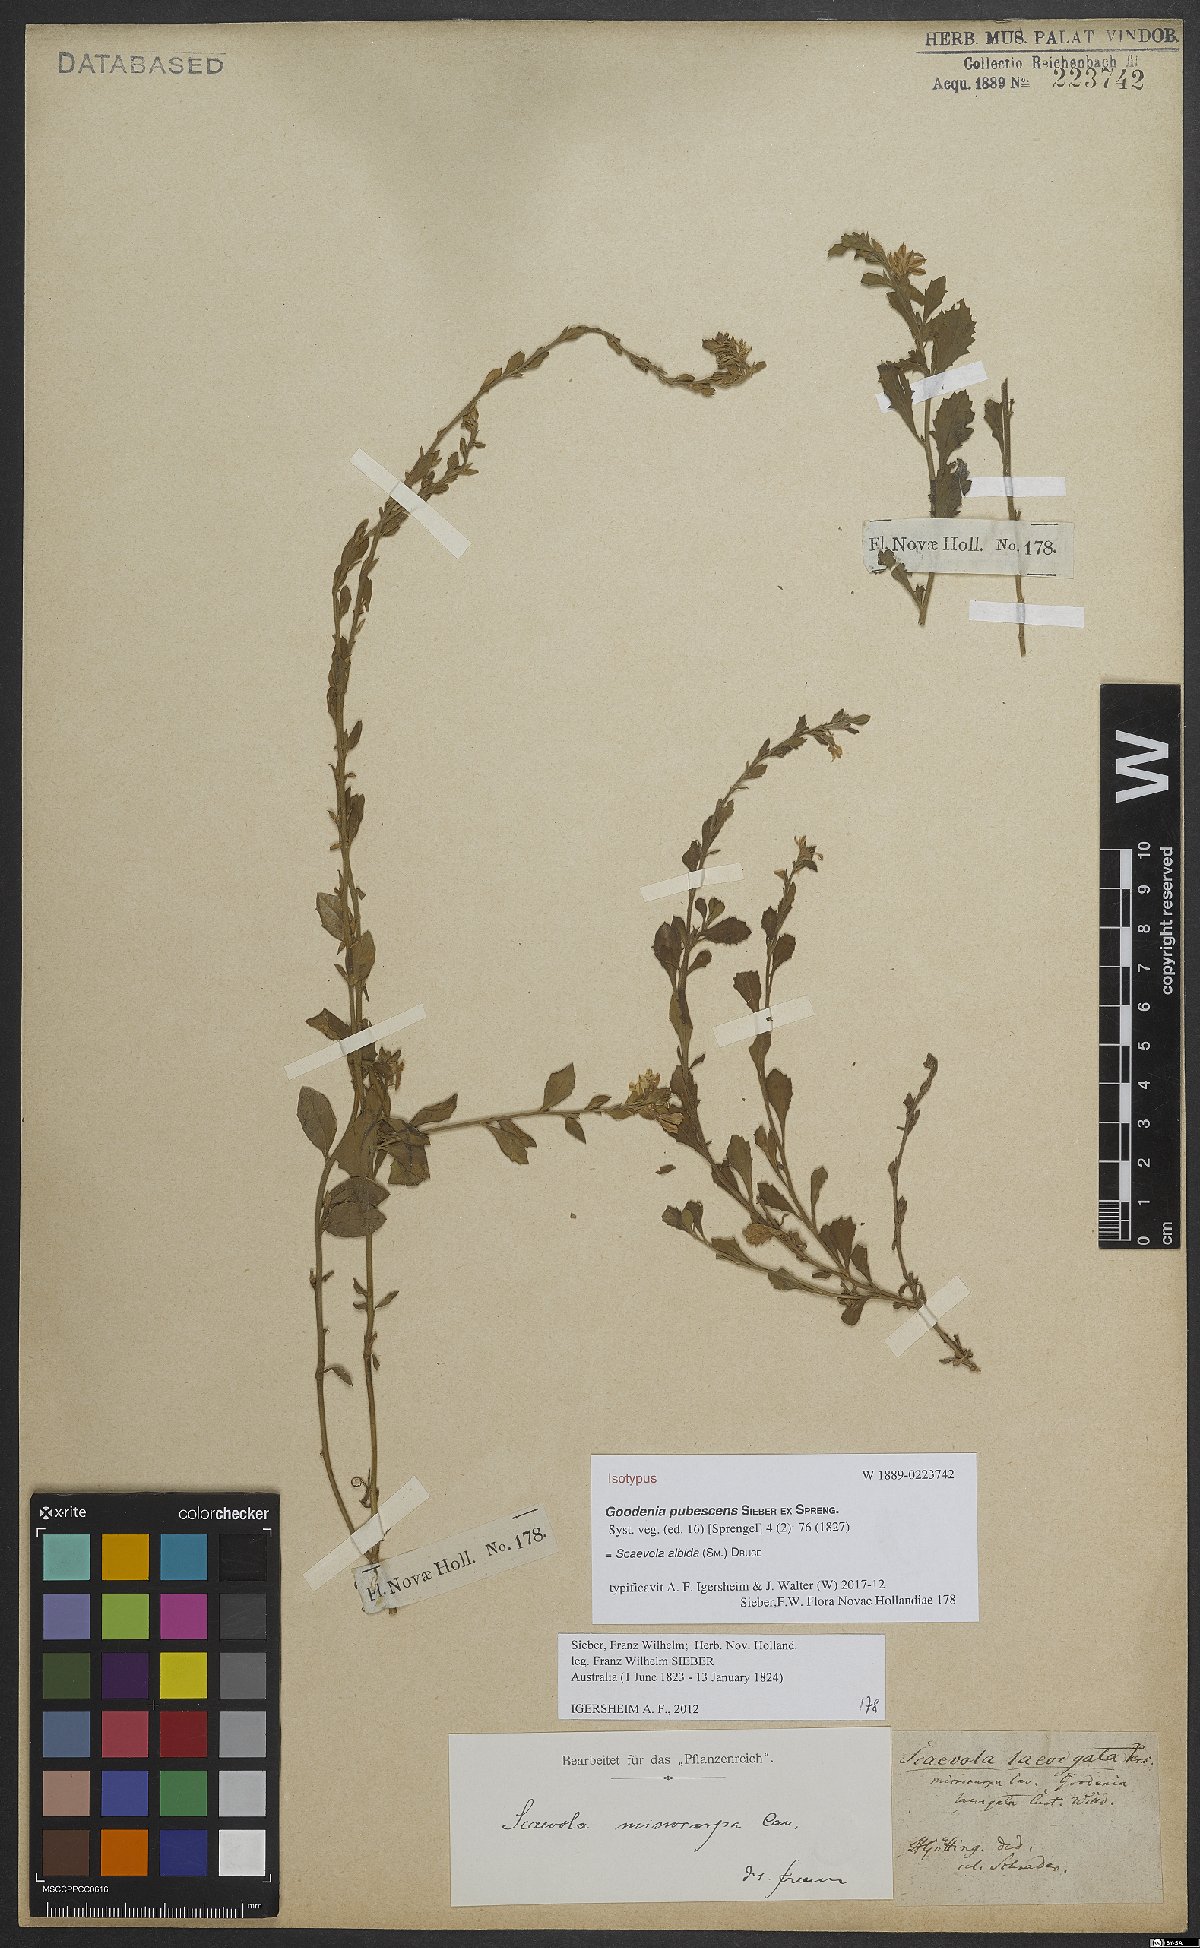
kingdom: Plantae
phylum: Tracheophyta
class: Magnoliopsida
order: Asterales
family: Goodeniaceae
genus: Scaevola
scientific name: Scaevola albida
